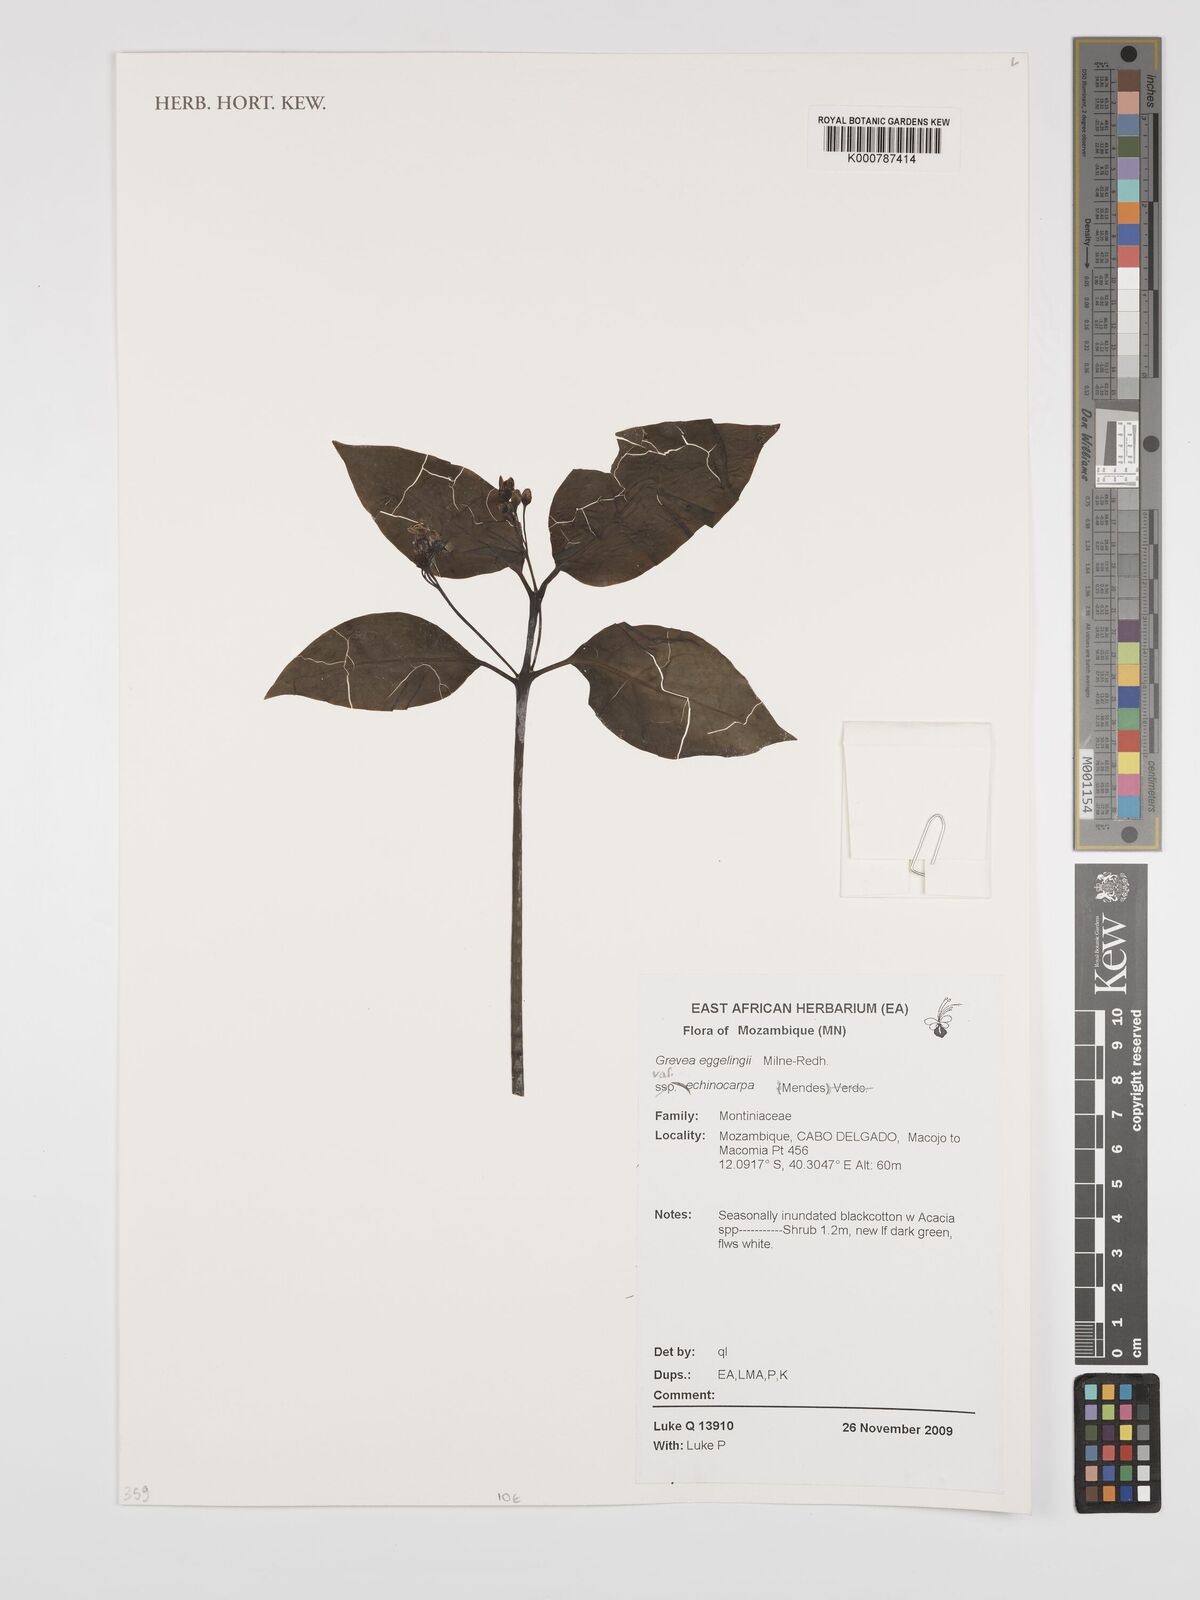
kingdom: Plantae
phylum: Tracheophyta
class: Magnoliopsida
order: Solanales
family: Montiniaceae
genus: Grevea
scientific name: Grevea eggelingii
